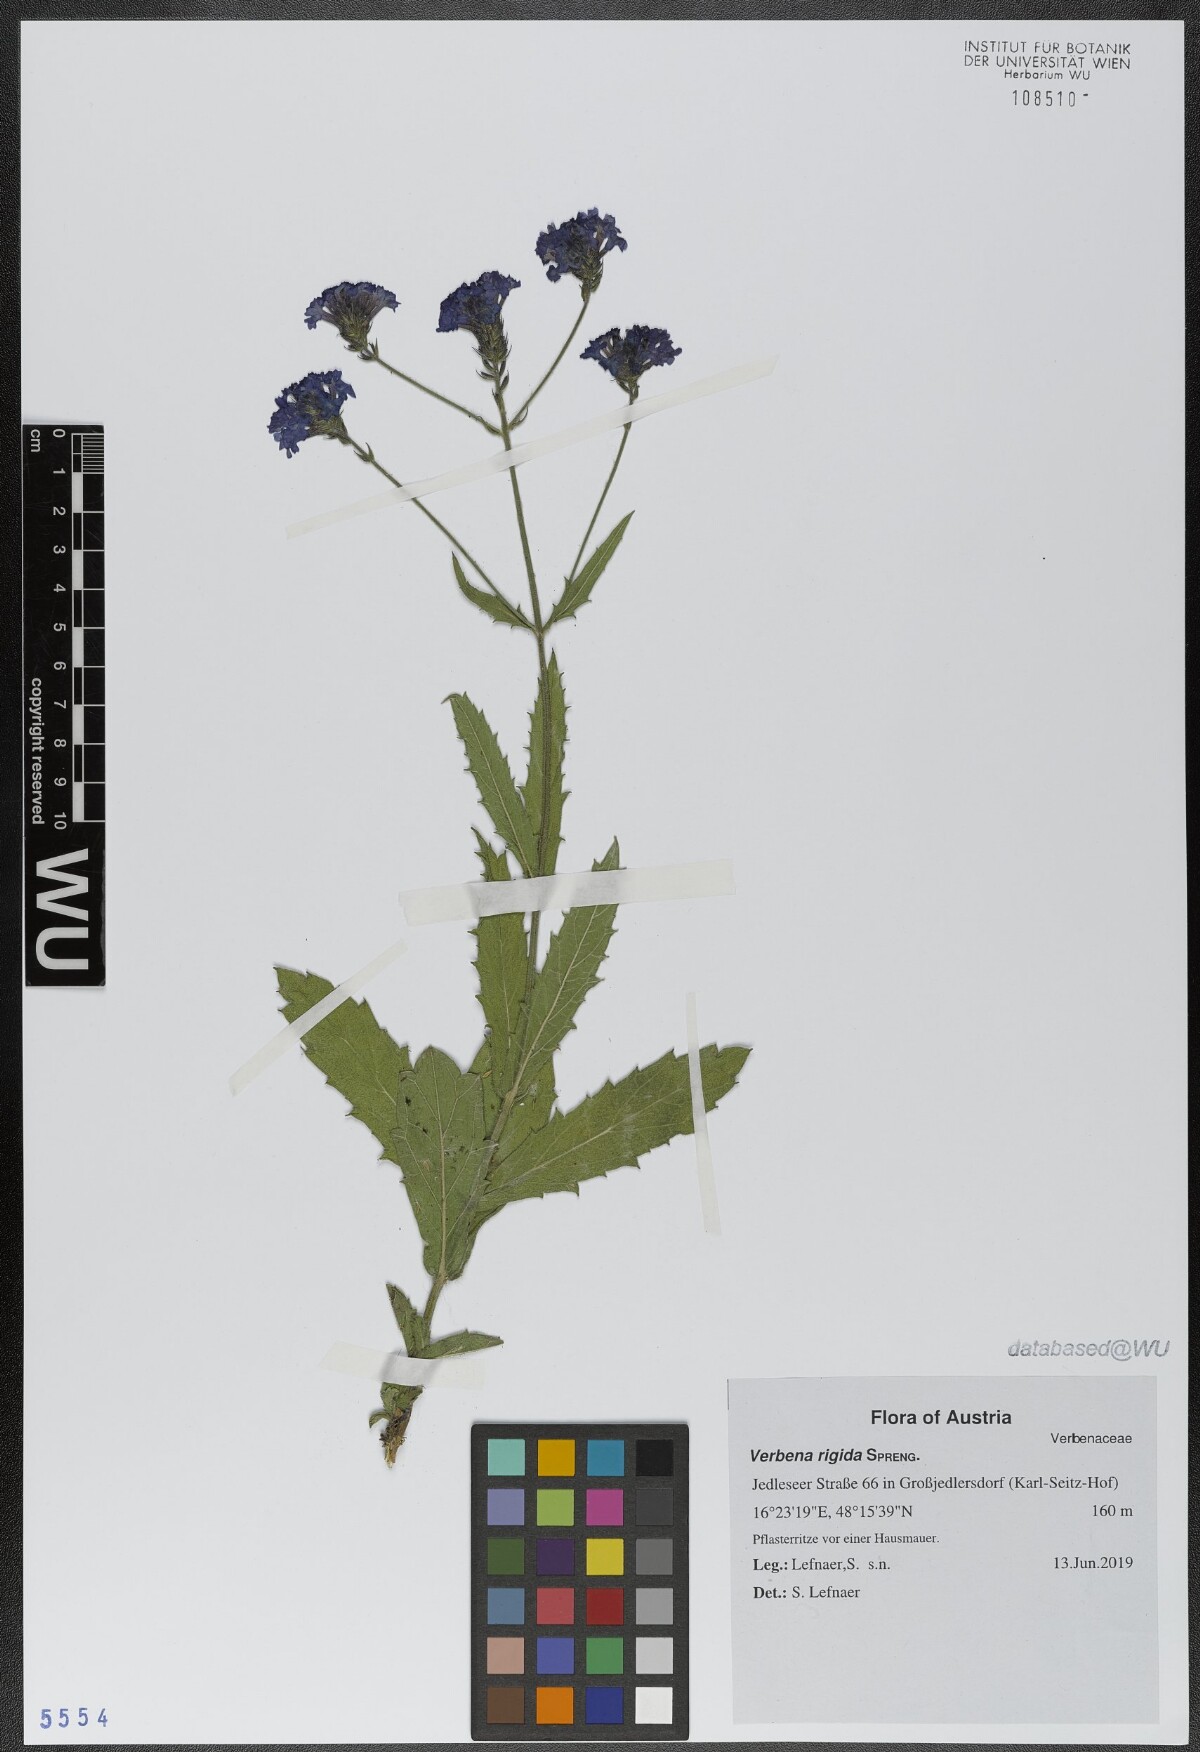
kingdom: Plantae
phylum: Tracheophyta
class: Magnoliopsida
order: Lamiales
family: Verbenaceae
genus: Verbena
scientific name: Verbena rigida
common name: Slender vervain
